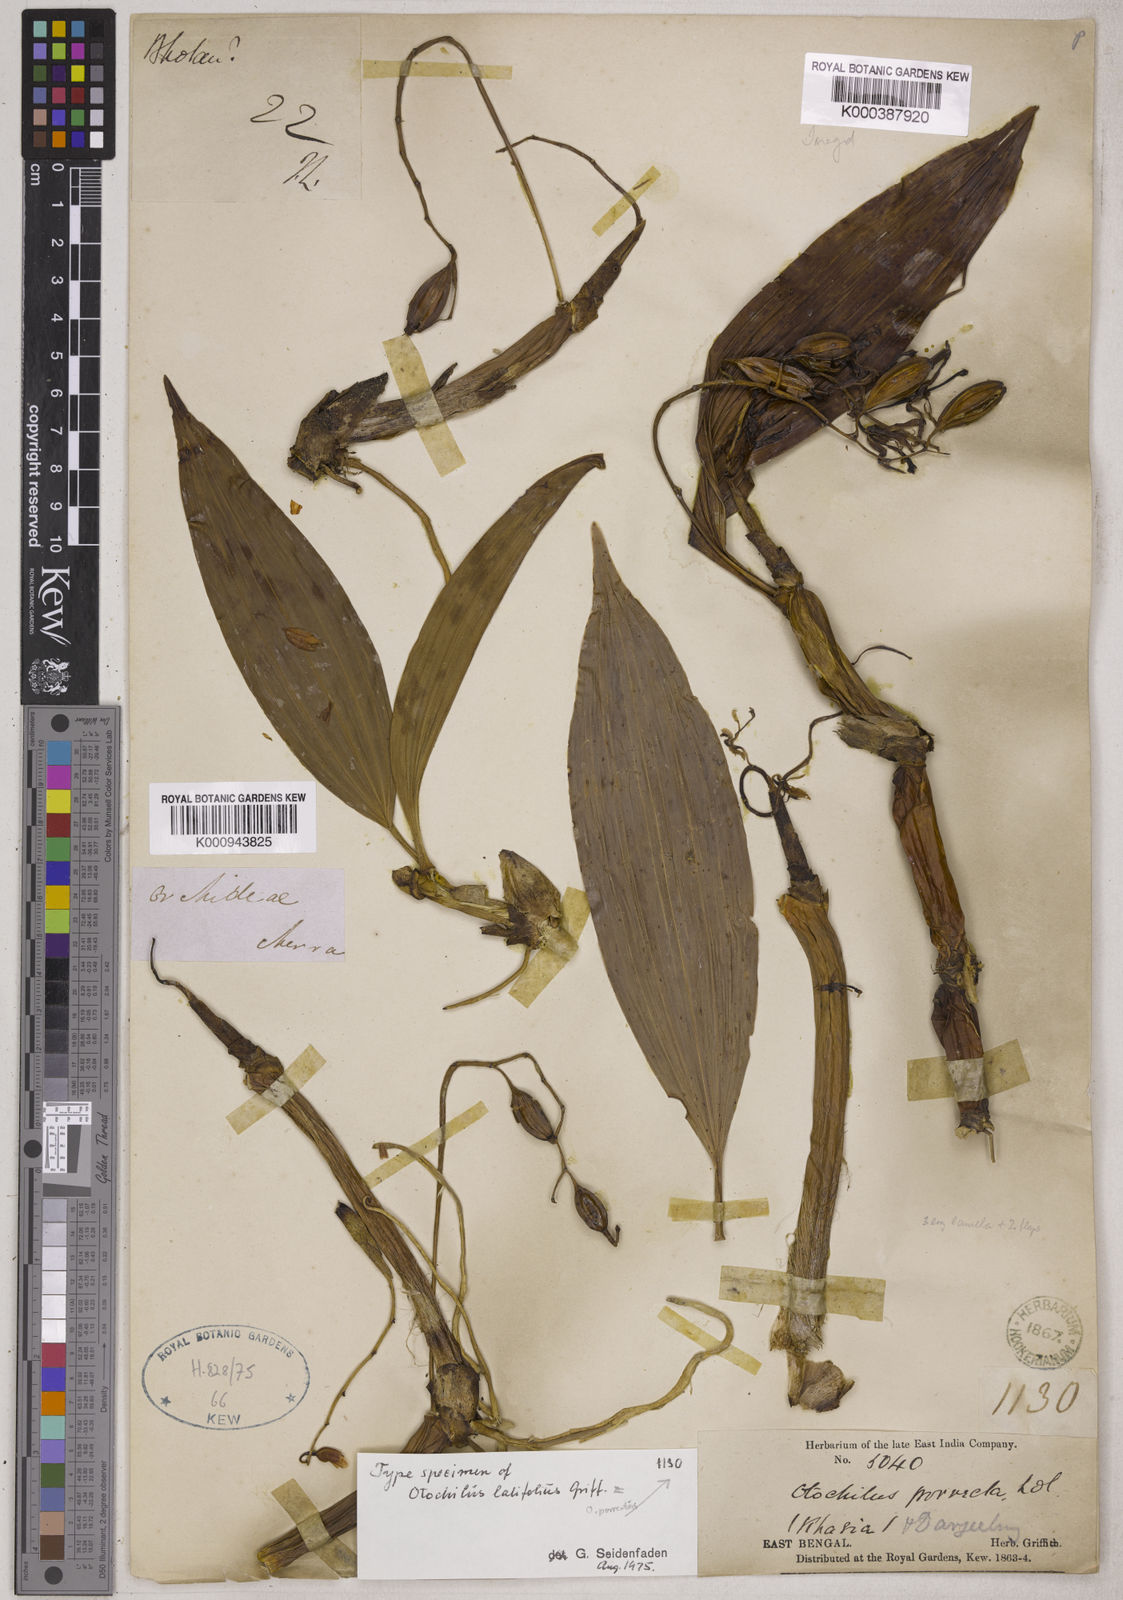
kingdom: Plantae
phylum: Tracheophyta
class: Liliopsida
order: Asparagales
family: Orchidaceae
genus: Coelogyne
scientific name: Coelogyne porrecta
